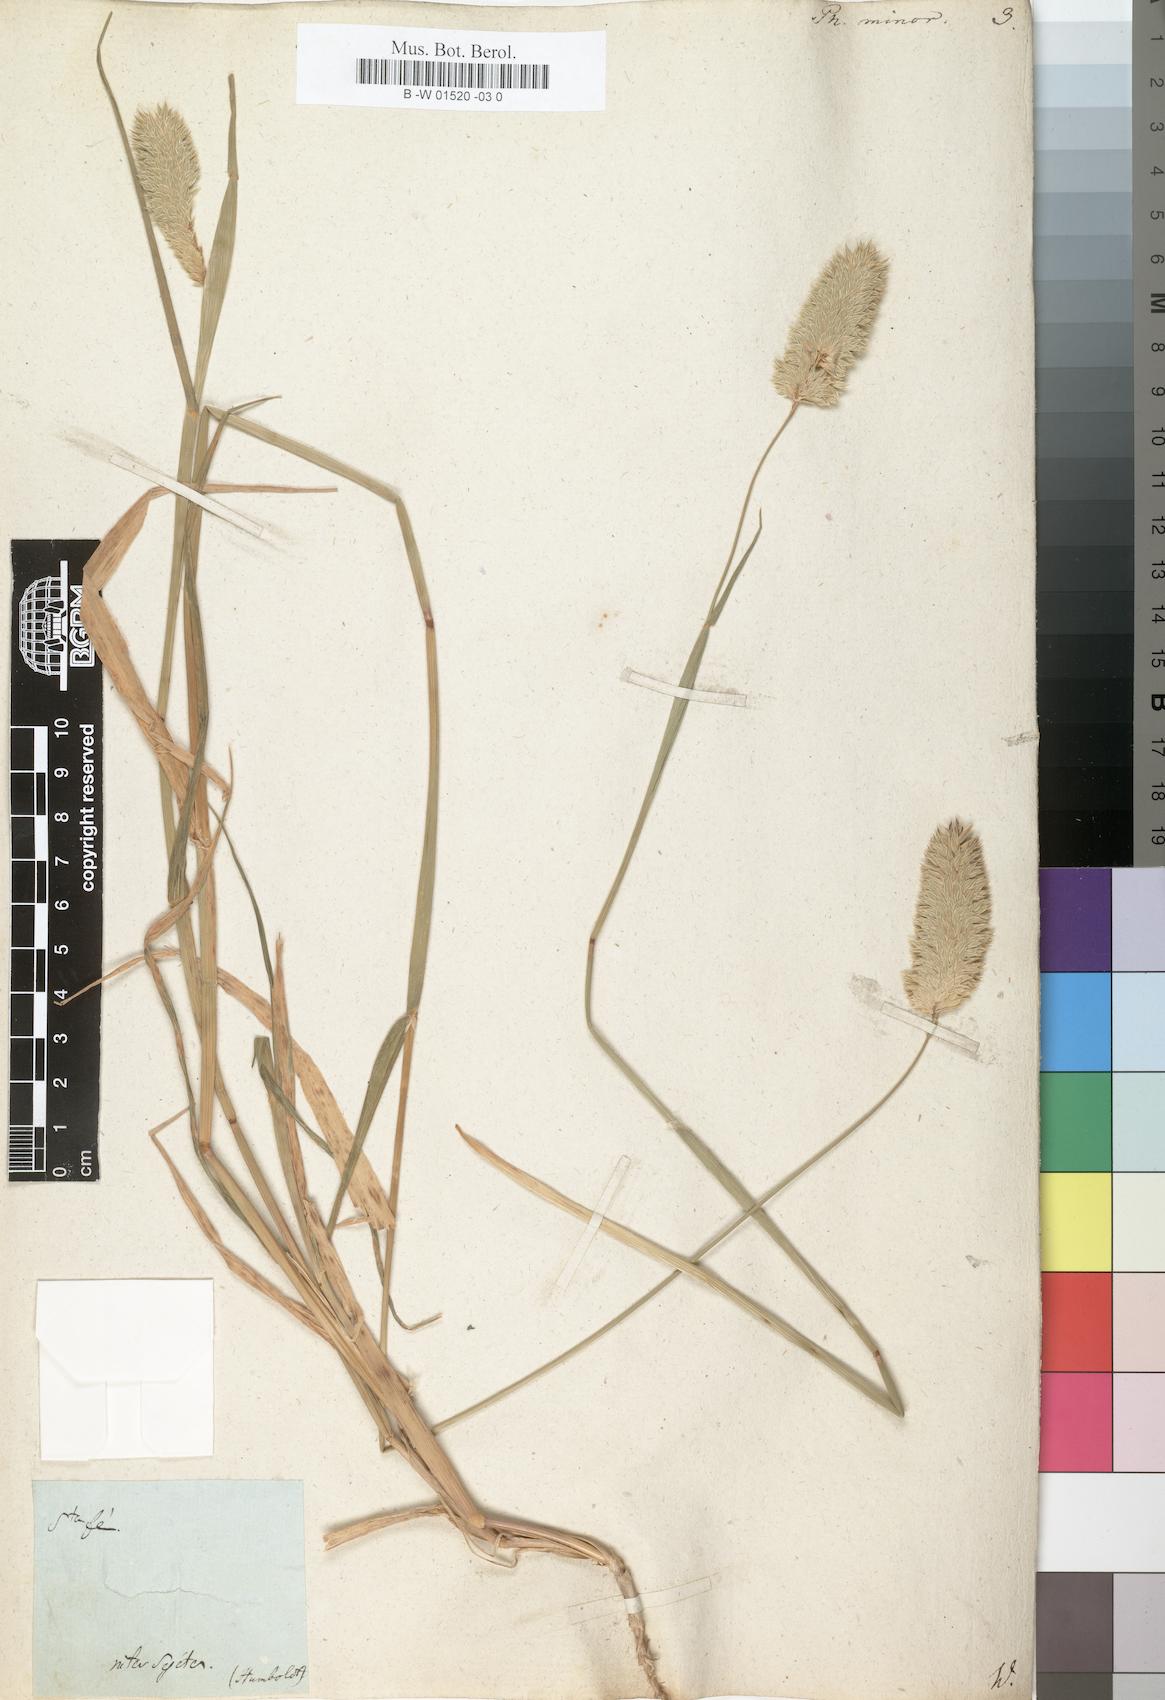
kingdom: Plantae
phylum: Tracheophyta
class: Liliopsida
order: Poales
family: Poaceae
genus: Phalaris
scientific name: Phalaris minor
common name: Littleseed canarygrass
